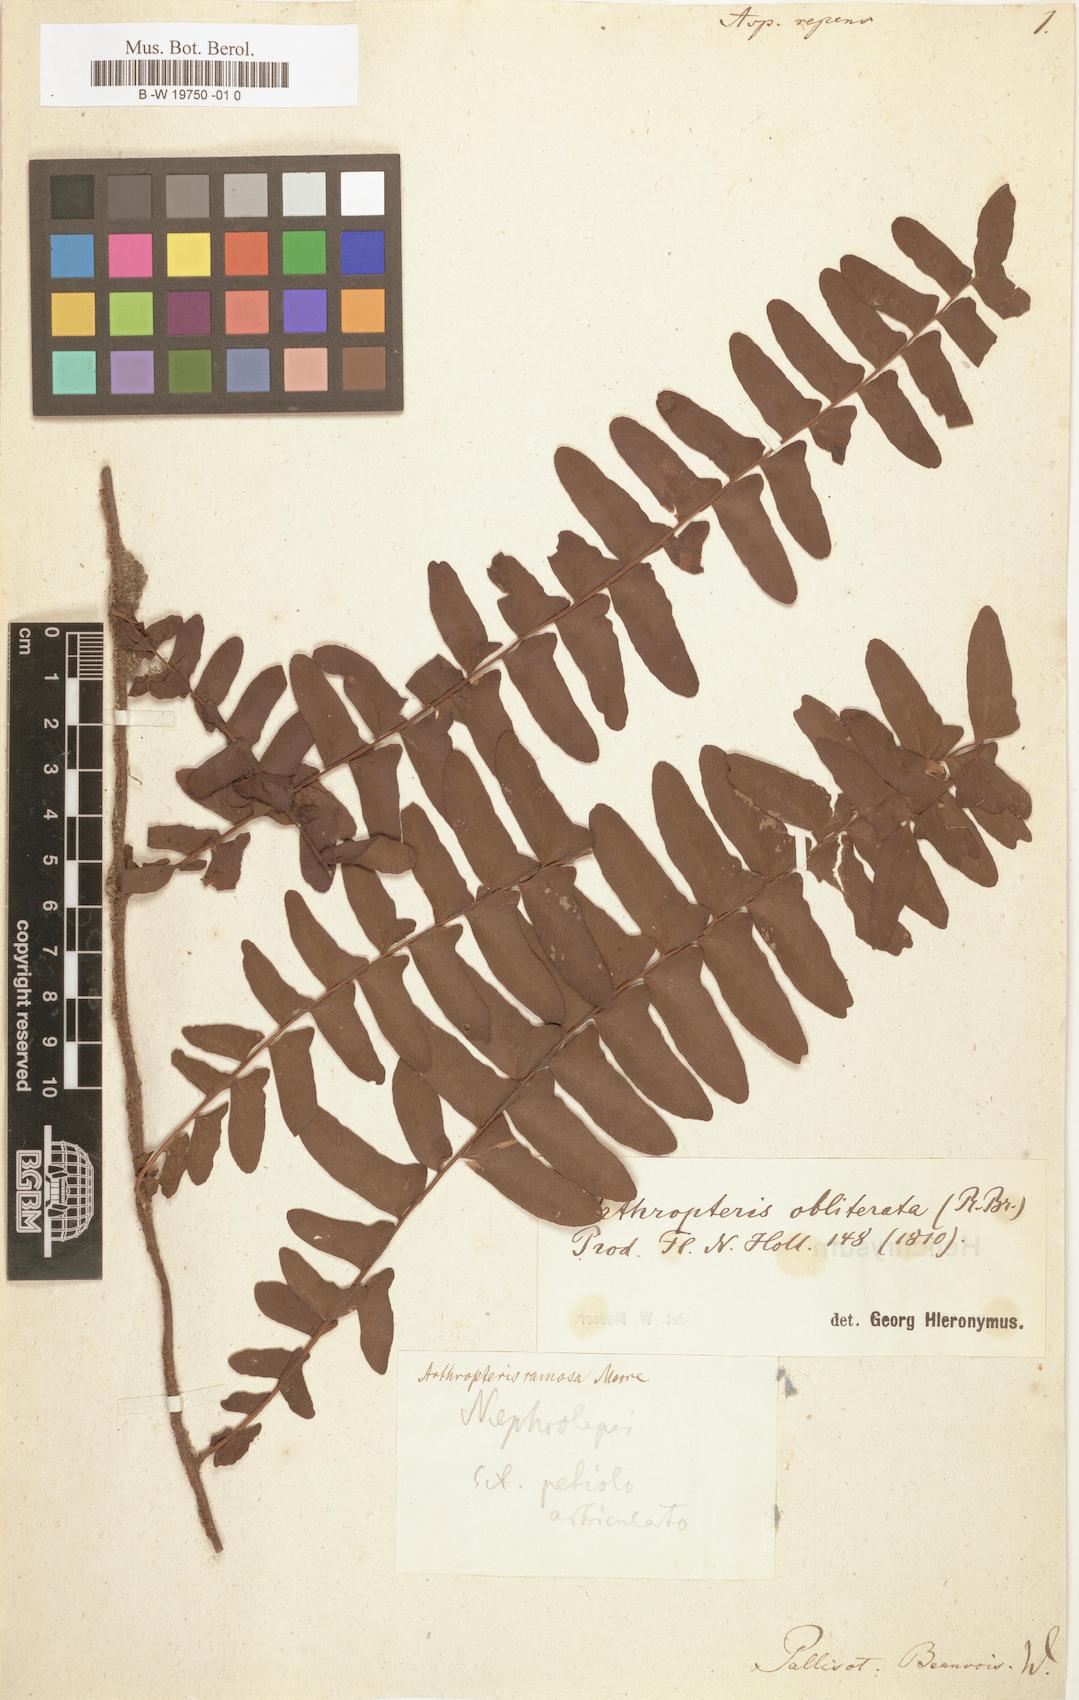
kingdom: Plantae
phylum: Tracheophyta
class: Polypodiopsida
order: Polypodiales
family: Athyriaceae
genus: Athyrium
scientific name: Athyrium schimperi
